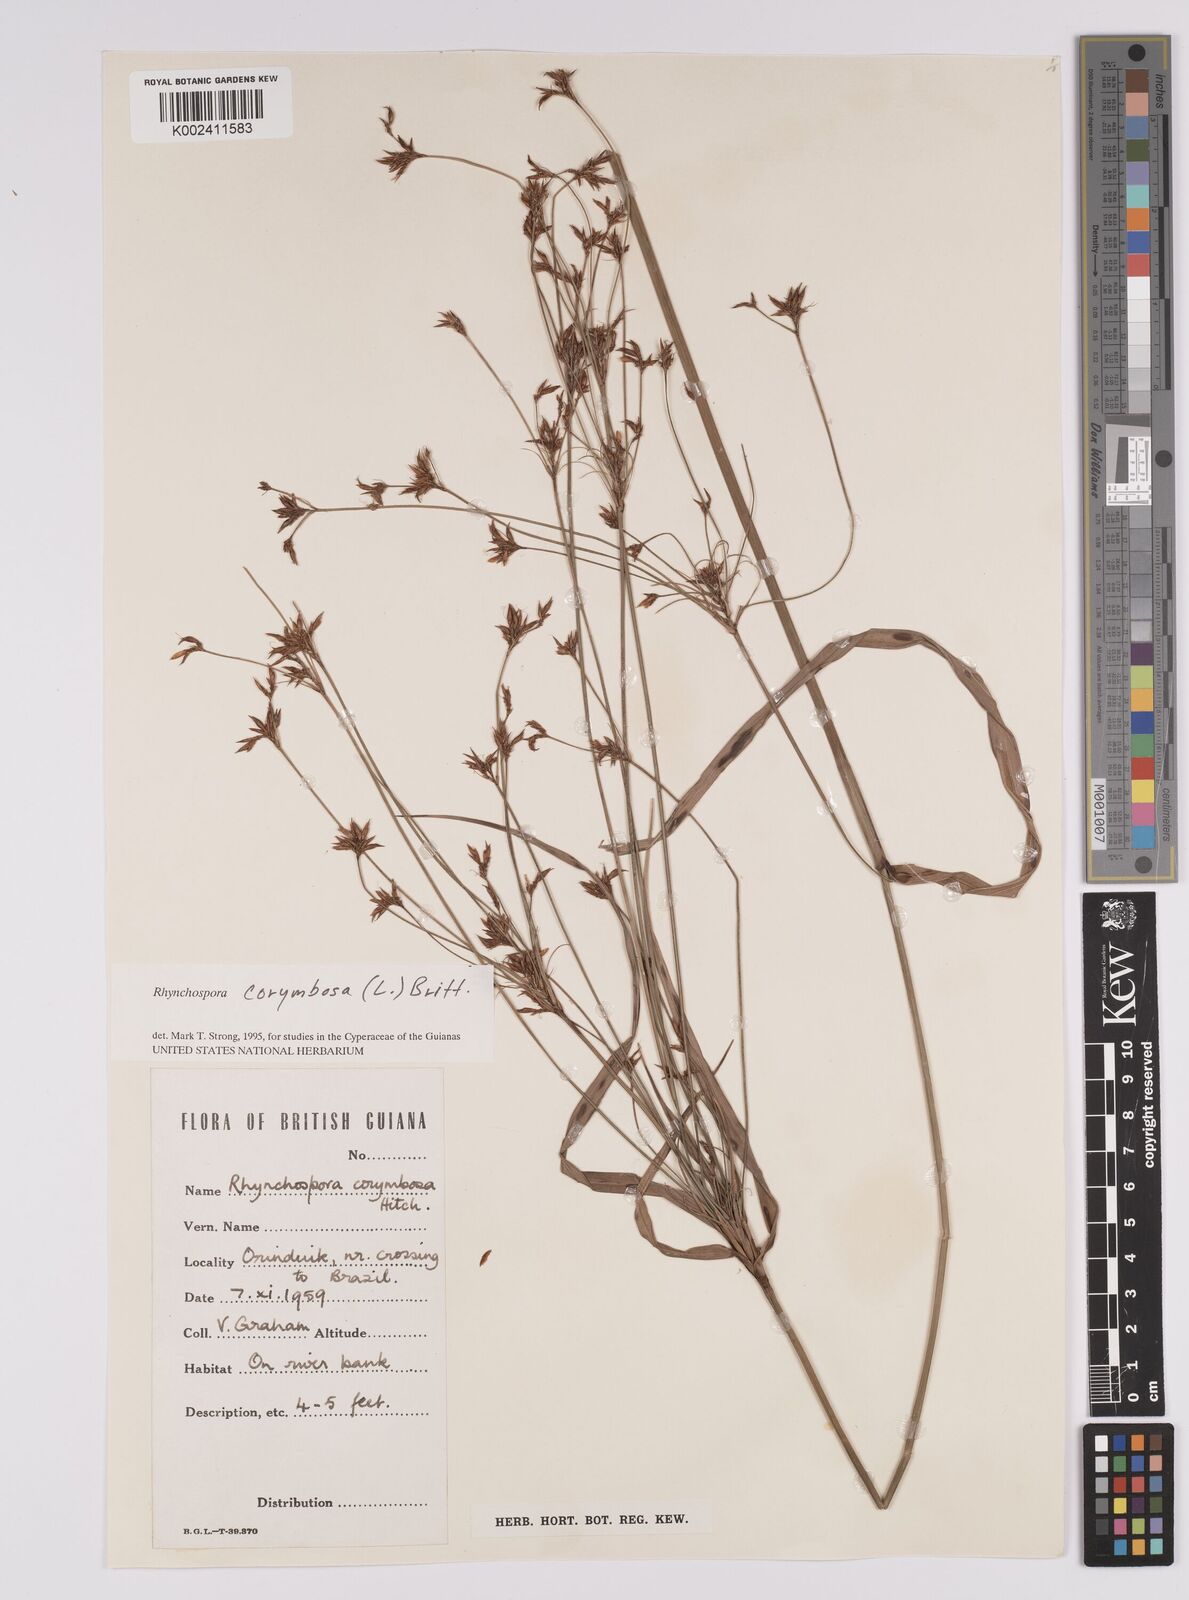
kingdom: Plantae
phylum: Tracheophyta
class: Liliopsida
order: Poales
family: Cyperaceae
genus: Rhynchospora
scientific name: Rhynchospora corymbosa
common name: Golden beak sedge
